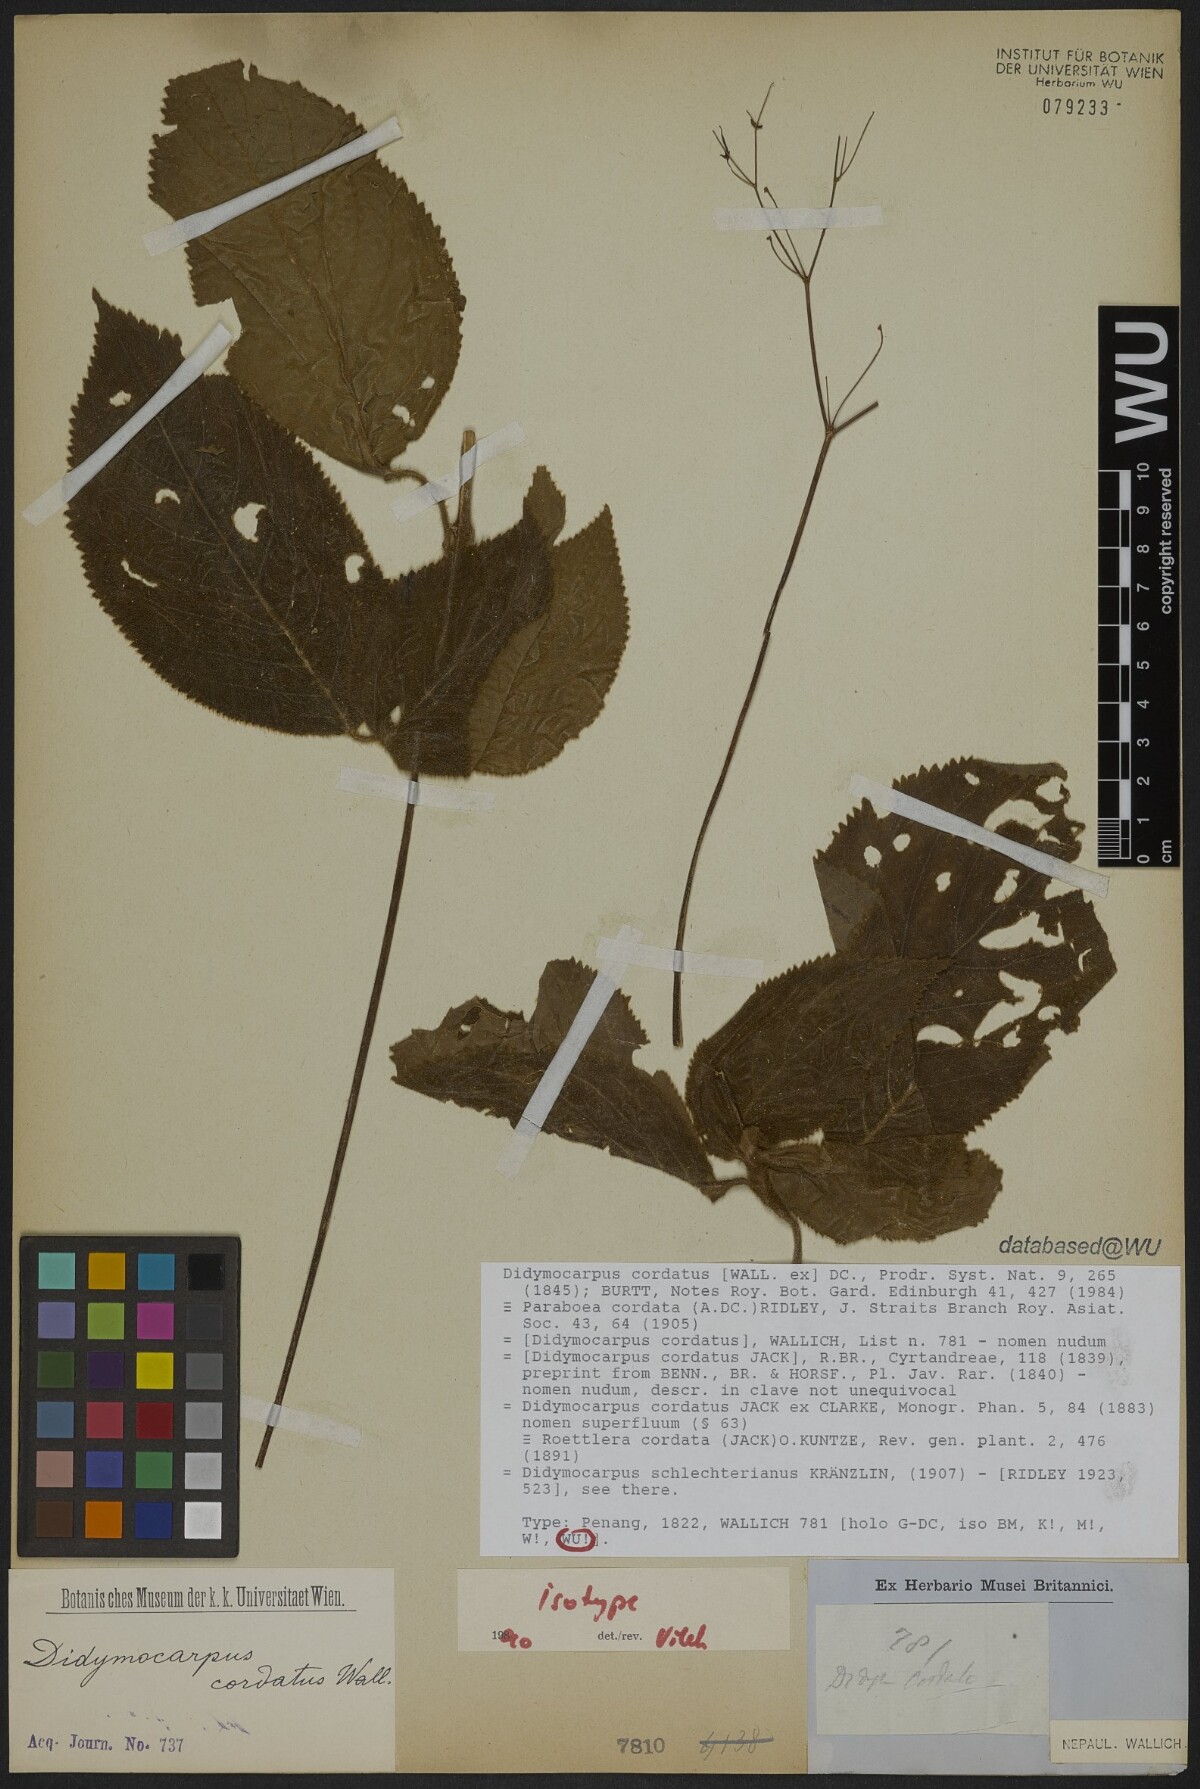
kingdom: Plantae
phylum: Tracheophyta
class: Magnoliopsida
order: Lamiales
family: Gesneriaceae
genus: Didymocarpus
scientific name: Didymocarpus cordatus
